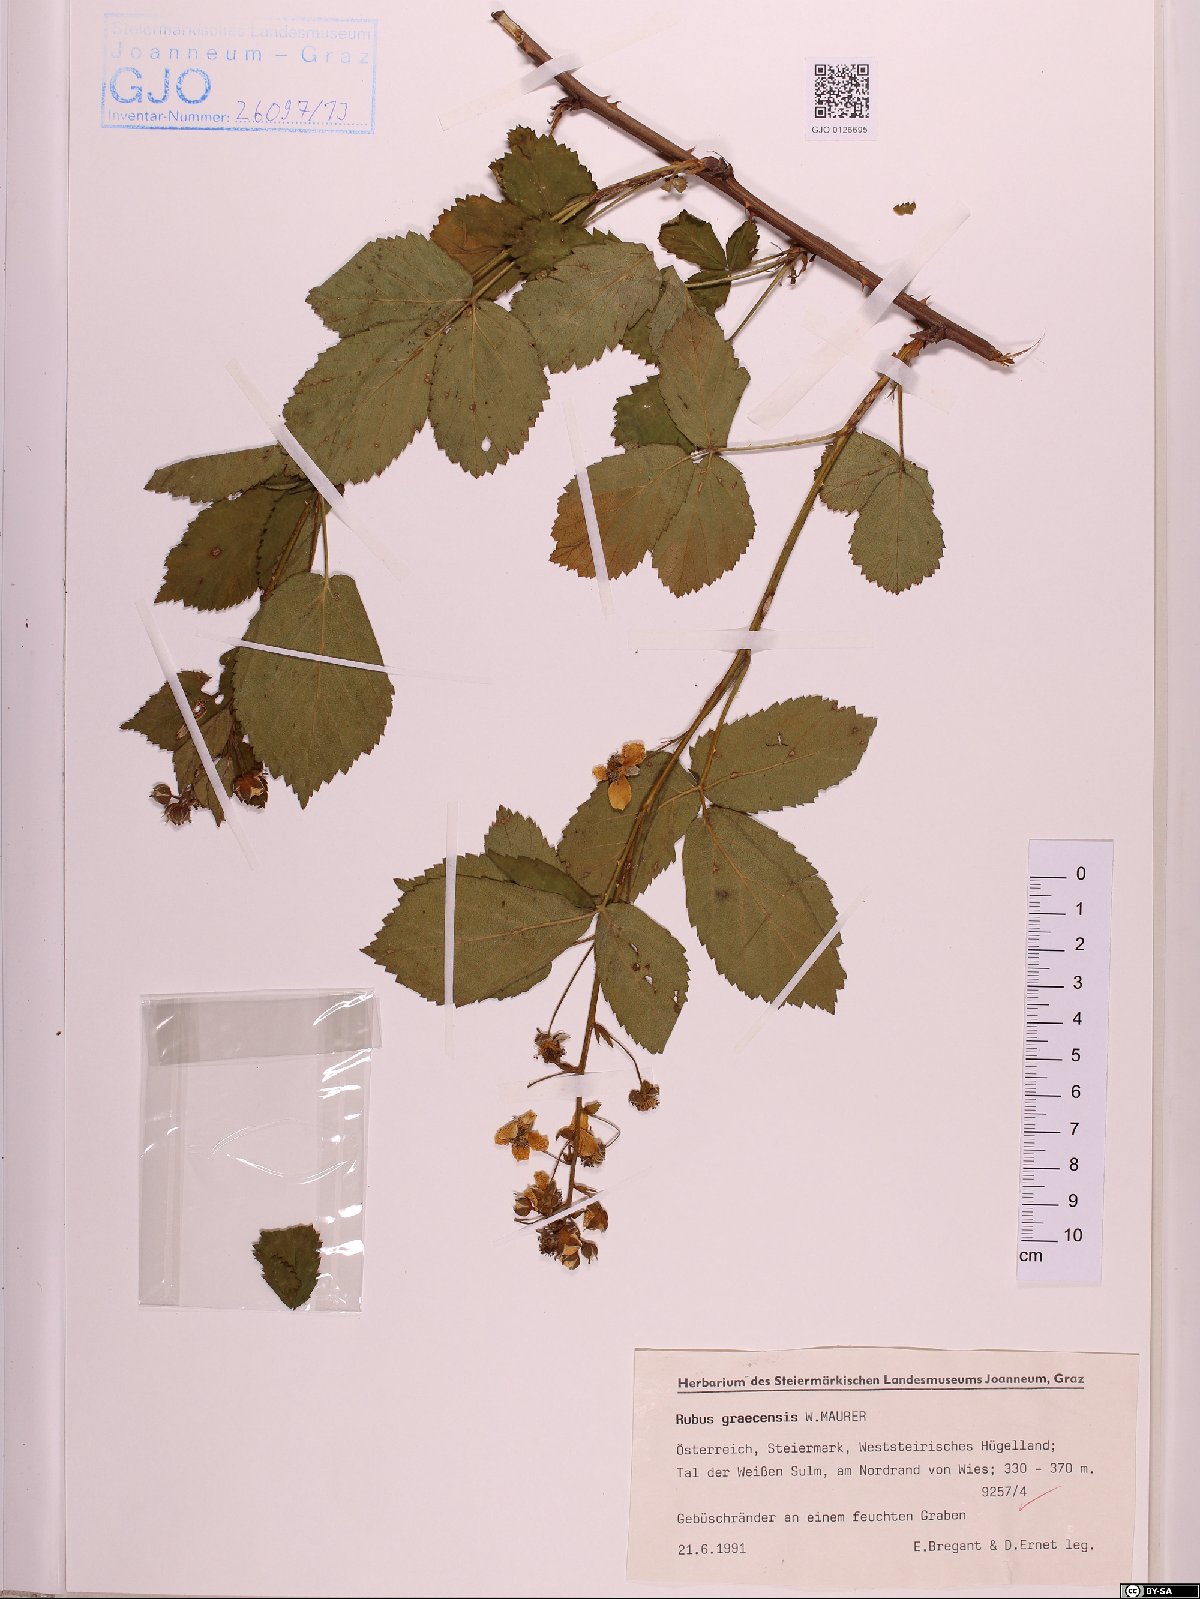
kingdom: Plantae
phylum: Tracheophyta
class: Magnoliopsida
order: Rosales
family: Rosaceae
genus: Rubus
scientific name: Rubus graecensis
